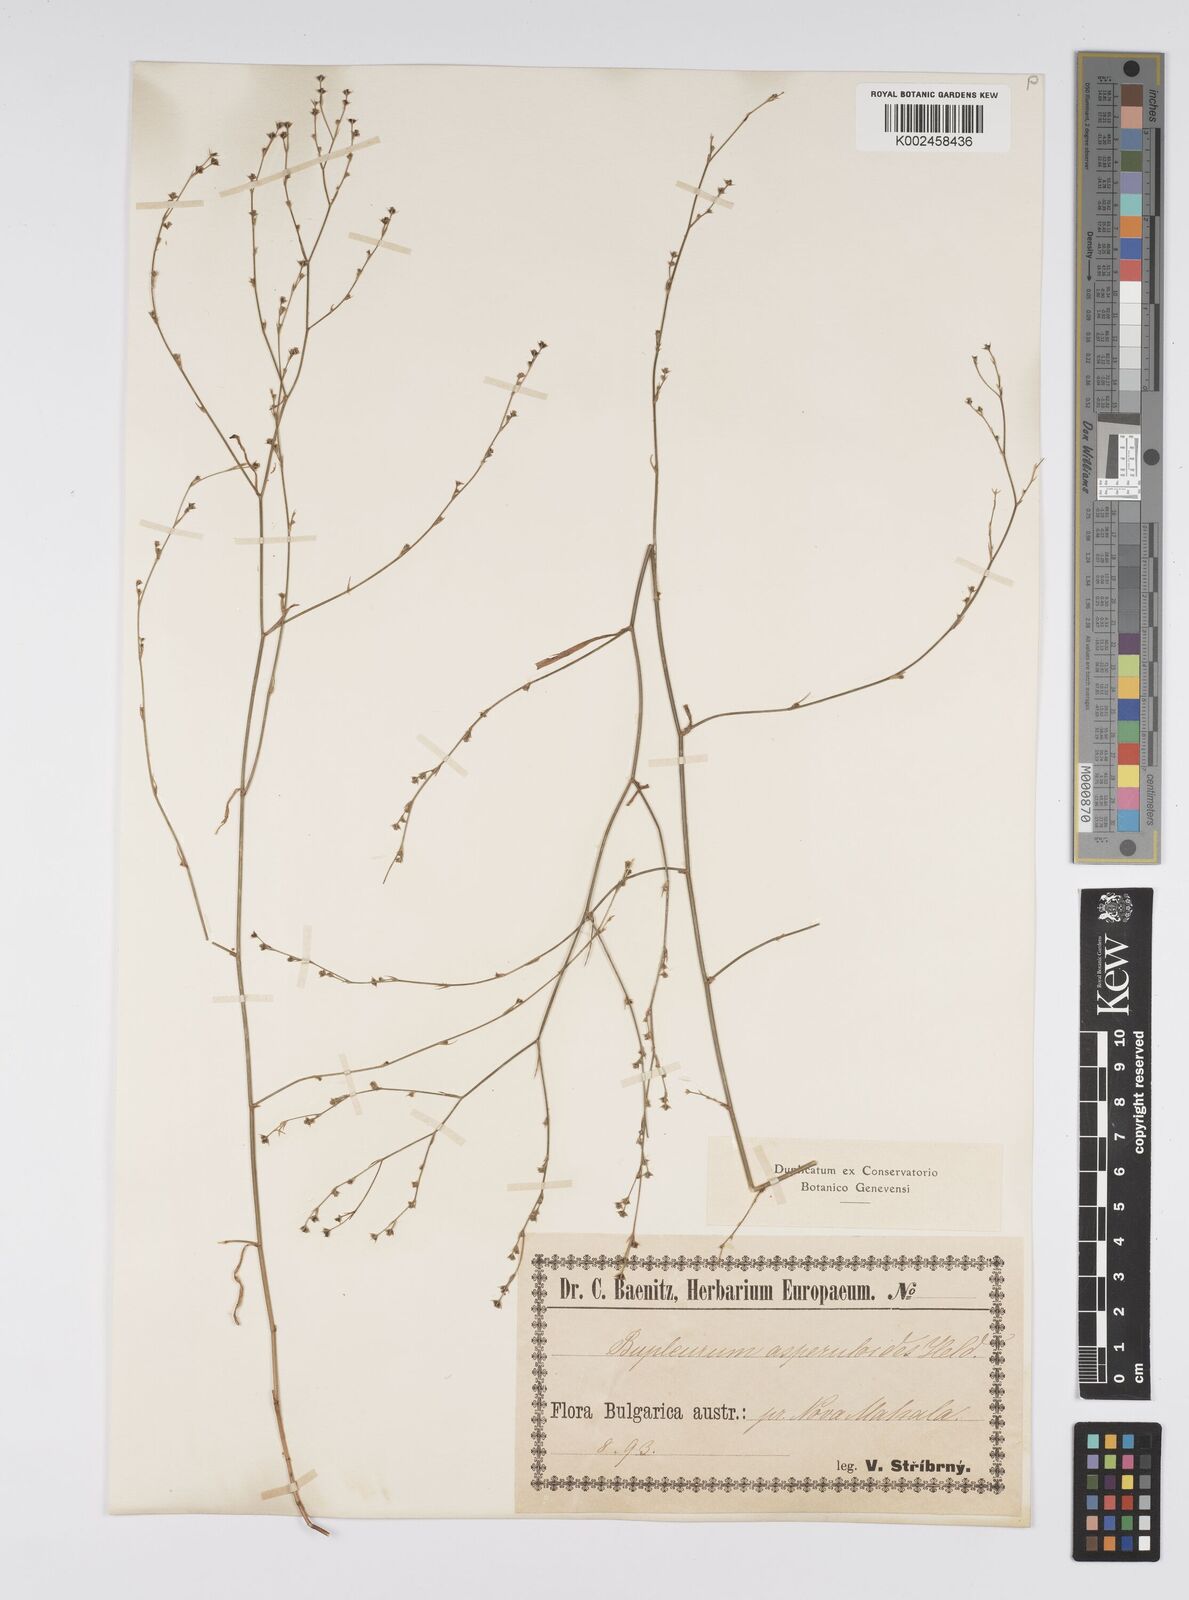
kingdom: Plantae
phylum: Tracheophyta
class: Magnoliopsida
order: Apiales
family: Apiaceae
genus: Bupleurum
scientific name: Bupleurum asperuloides
